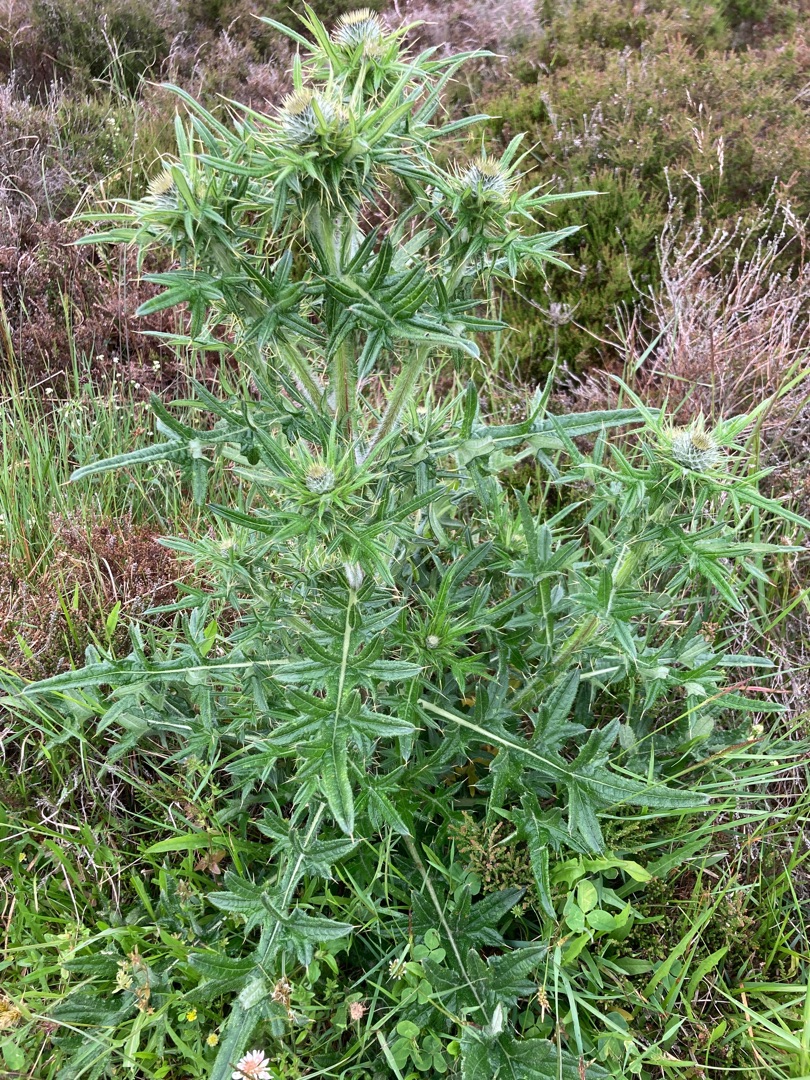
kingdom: Plantae
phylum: Tracheophyta
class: Magnoliopsida
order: Asterales
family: Asteraceae
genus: Cirsium
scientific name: Cirsium vulgare
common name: Horse-tidsel
